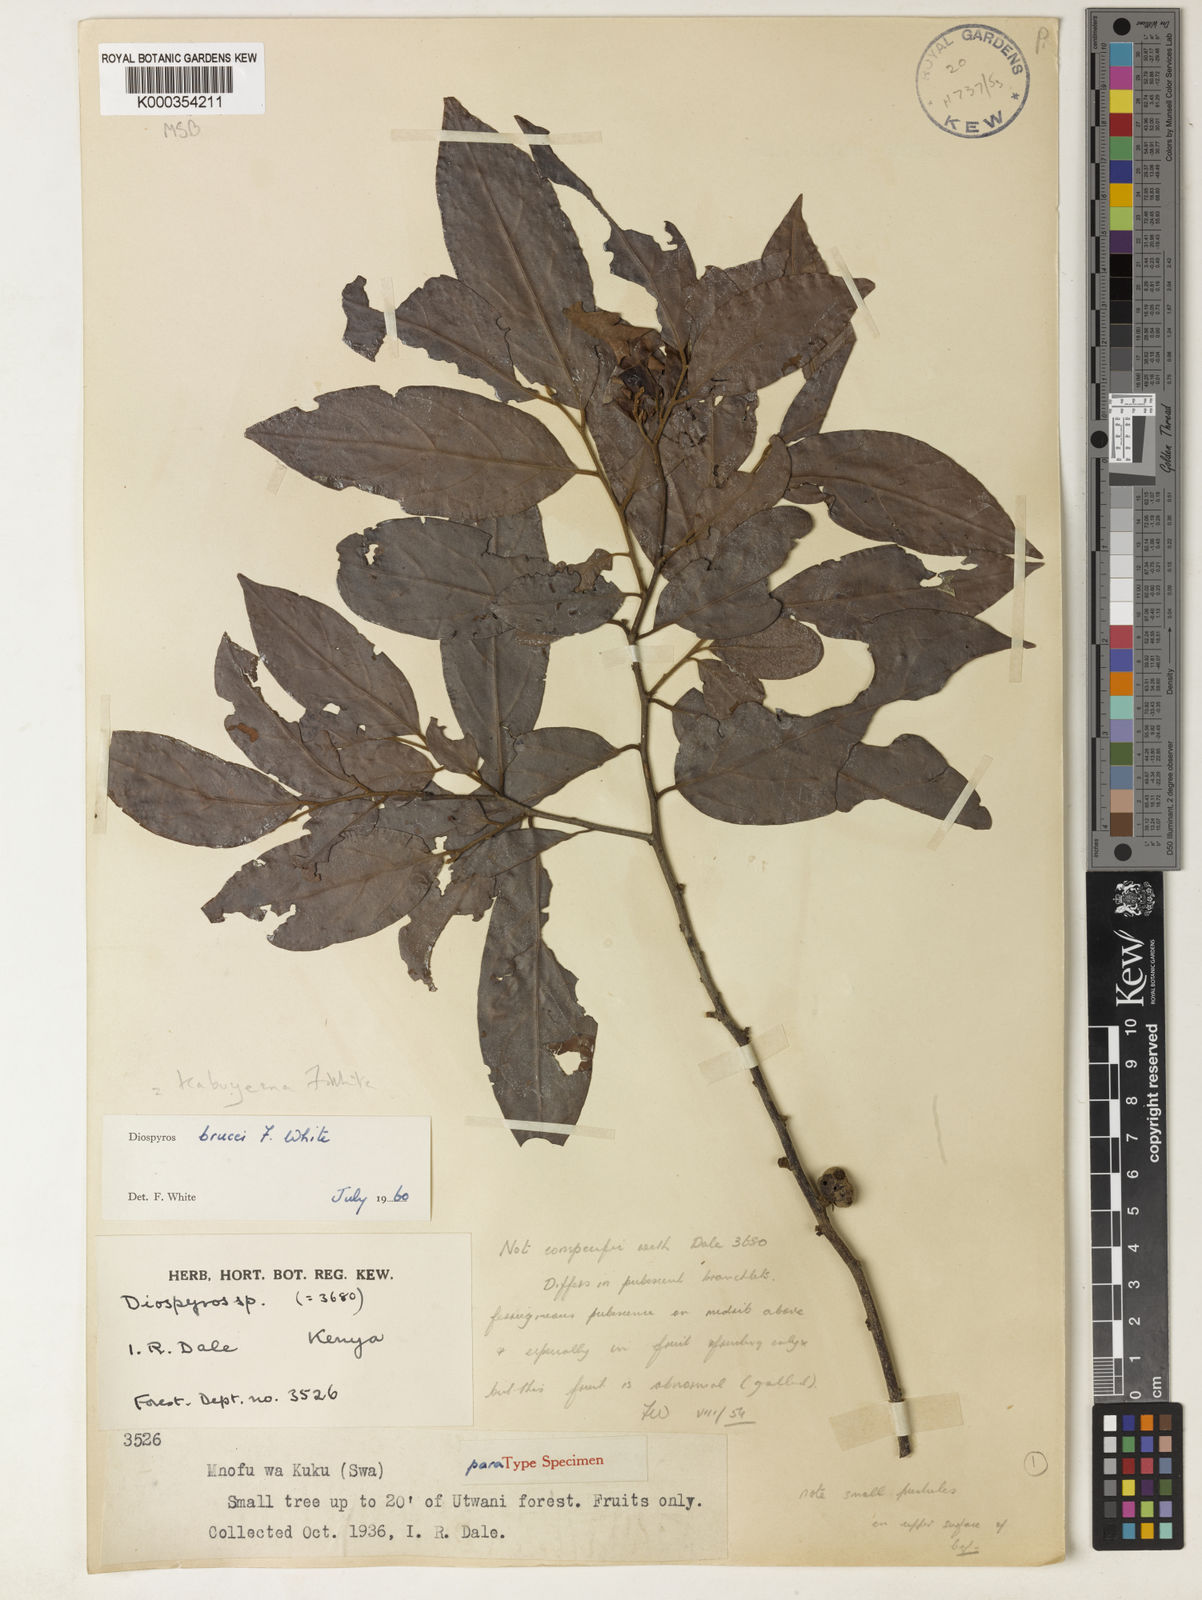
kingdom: Plantae
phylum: Tracheophyta
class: Magnoliopsida
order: Ericales
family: Ebenaceae
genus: Diospyros
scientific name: Diospyros kabuyeana
